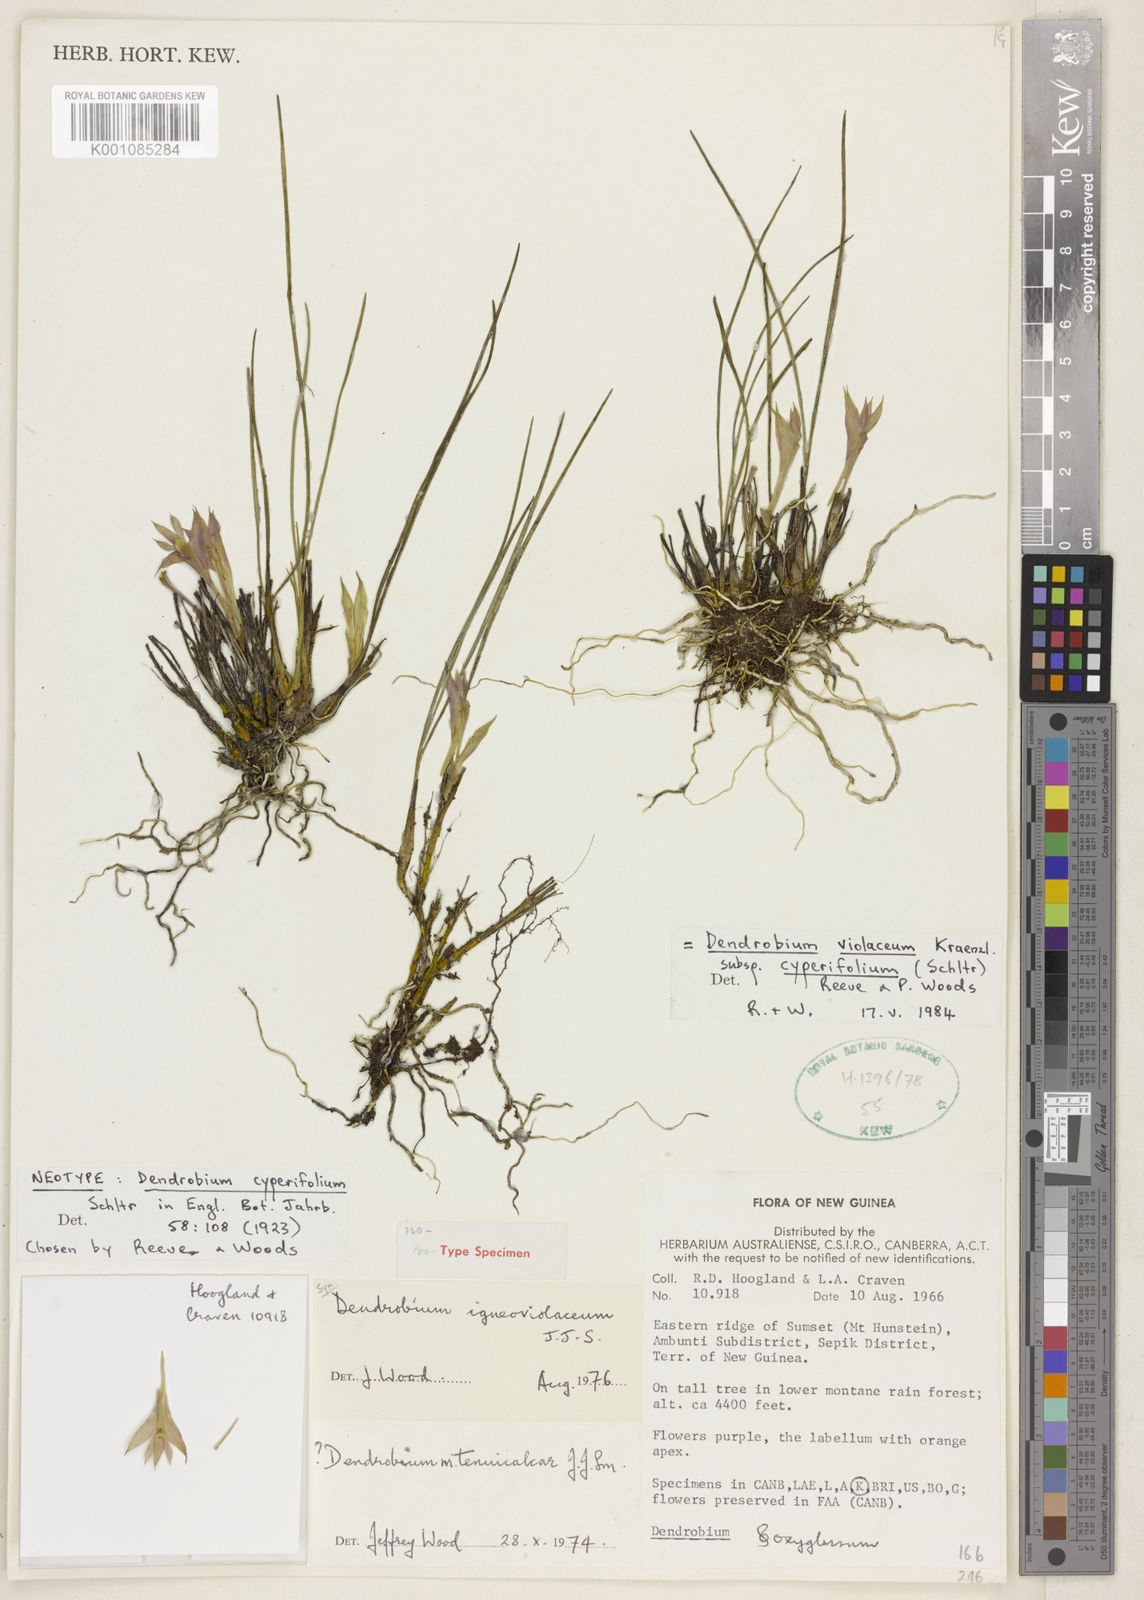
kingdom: Plantae
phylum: Tracheophyta
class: Liliopsida
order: Asparagales
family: Orchidaceae
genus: Dendrobium
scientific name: Dendrobium violaceum
